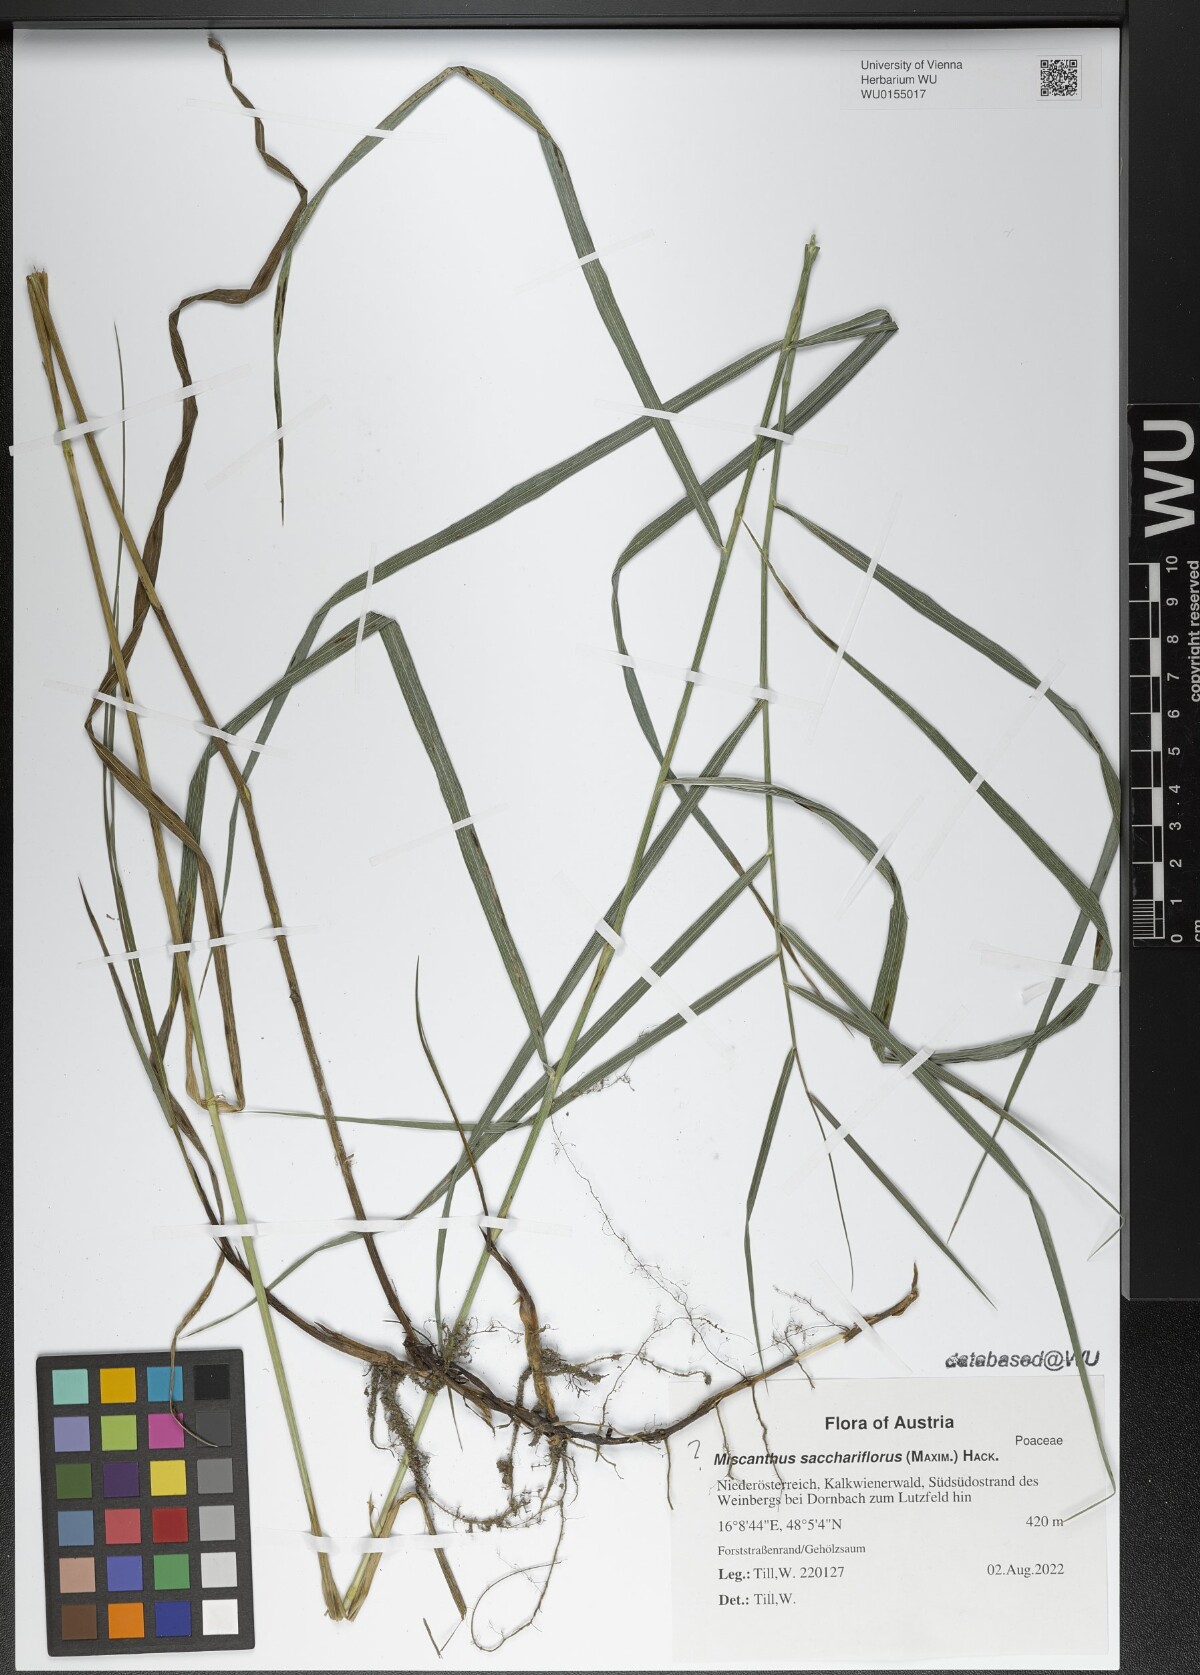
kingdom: Plantae
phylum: Tracheophyta
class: Liliopsida
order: Poales
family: Poaceae
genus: Miscanthus
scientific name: Miscanthus sacchariflorus
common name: Amur silver grass
